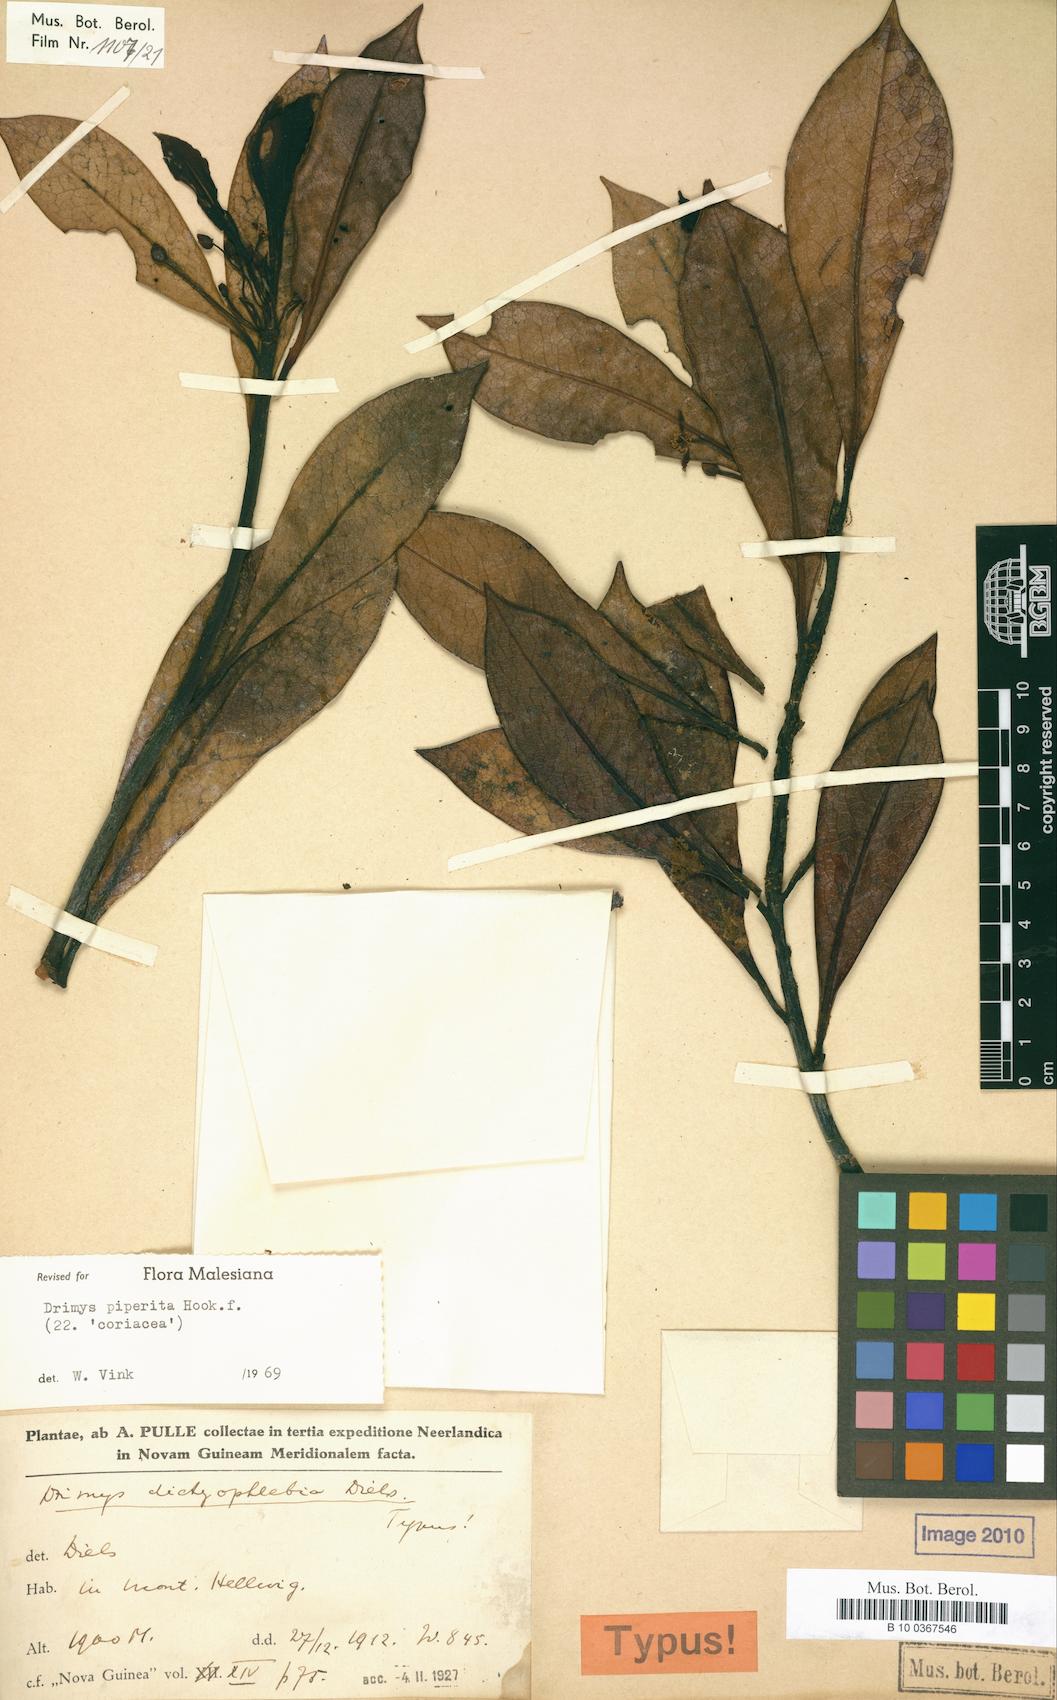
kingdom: Plantae
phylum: Tracheophyta
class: Magnoliopsida
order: Canellales
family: Winteraceae
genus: Drimys
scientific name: Drimys piperita
